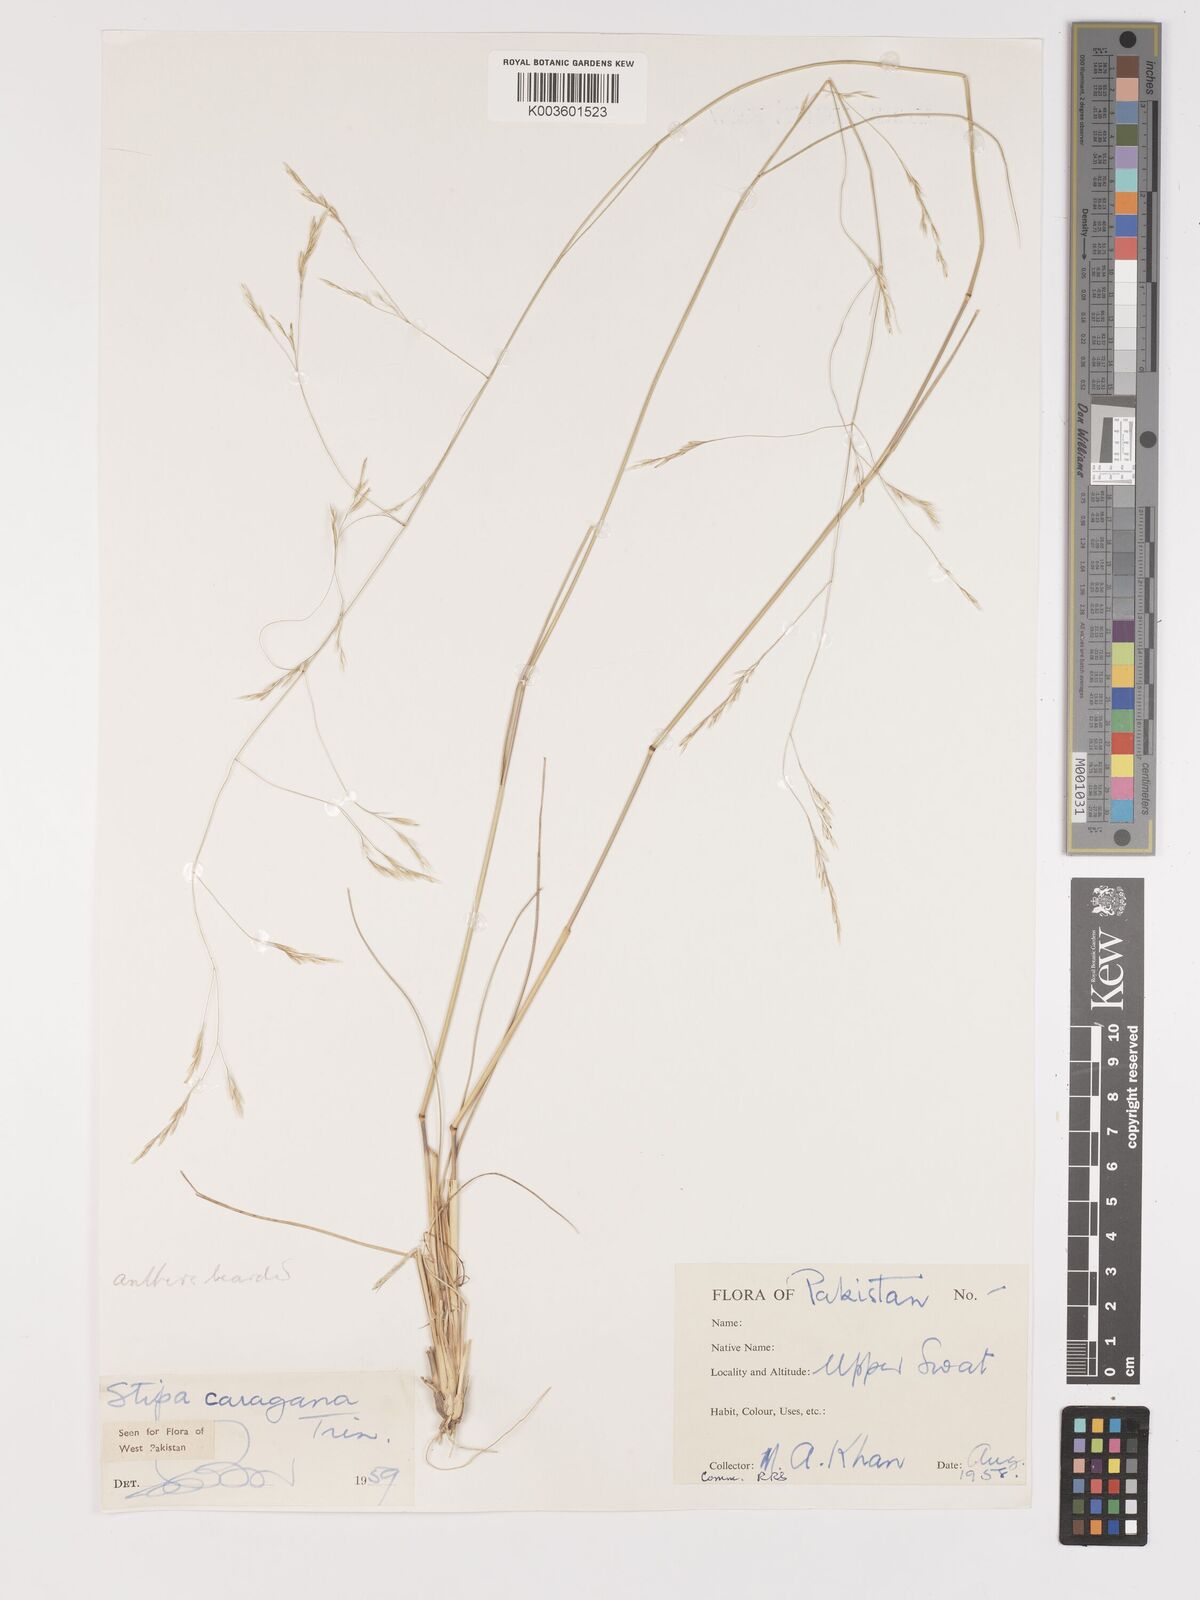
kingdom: Plantae
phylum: Tracheophyta
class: Liliopsida
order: Poales
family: Poaceae
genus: Stipa
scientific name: Stipa conferta
